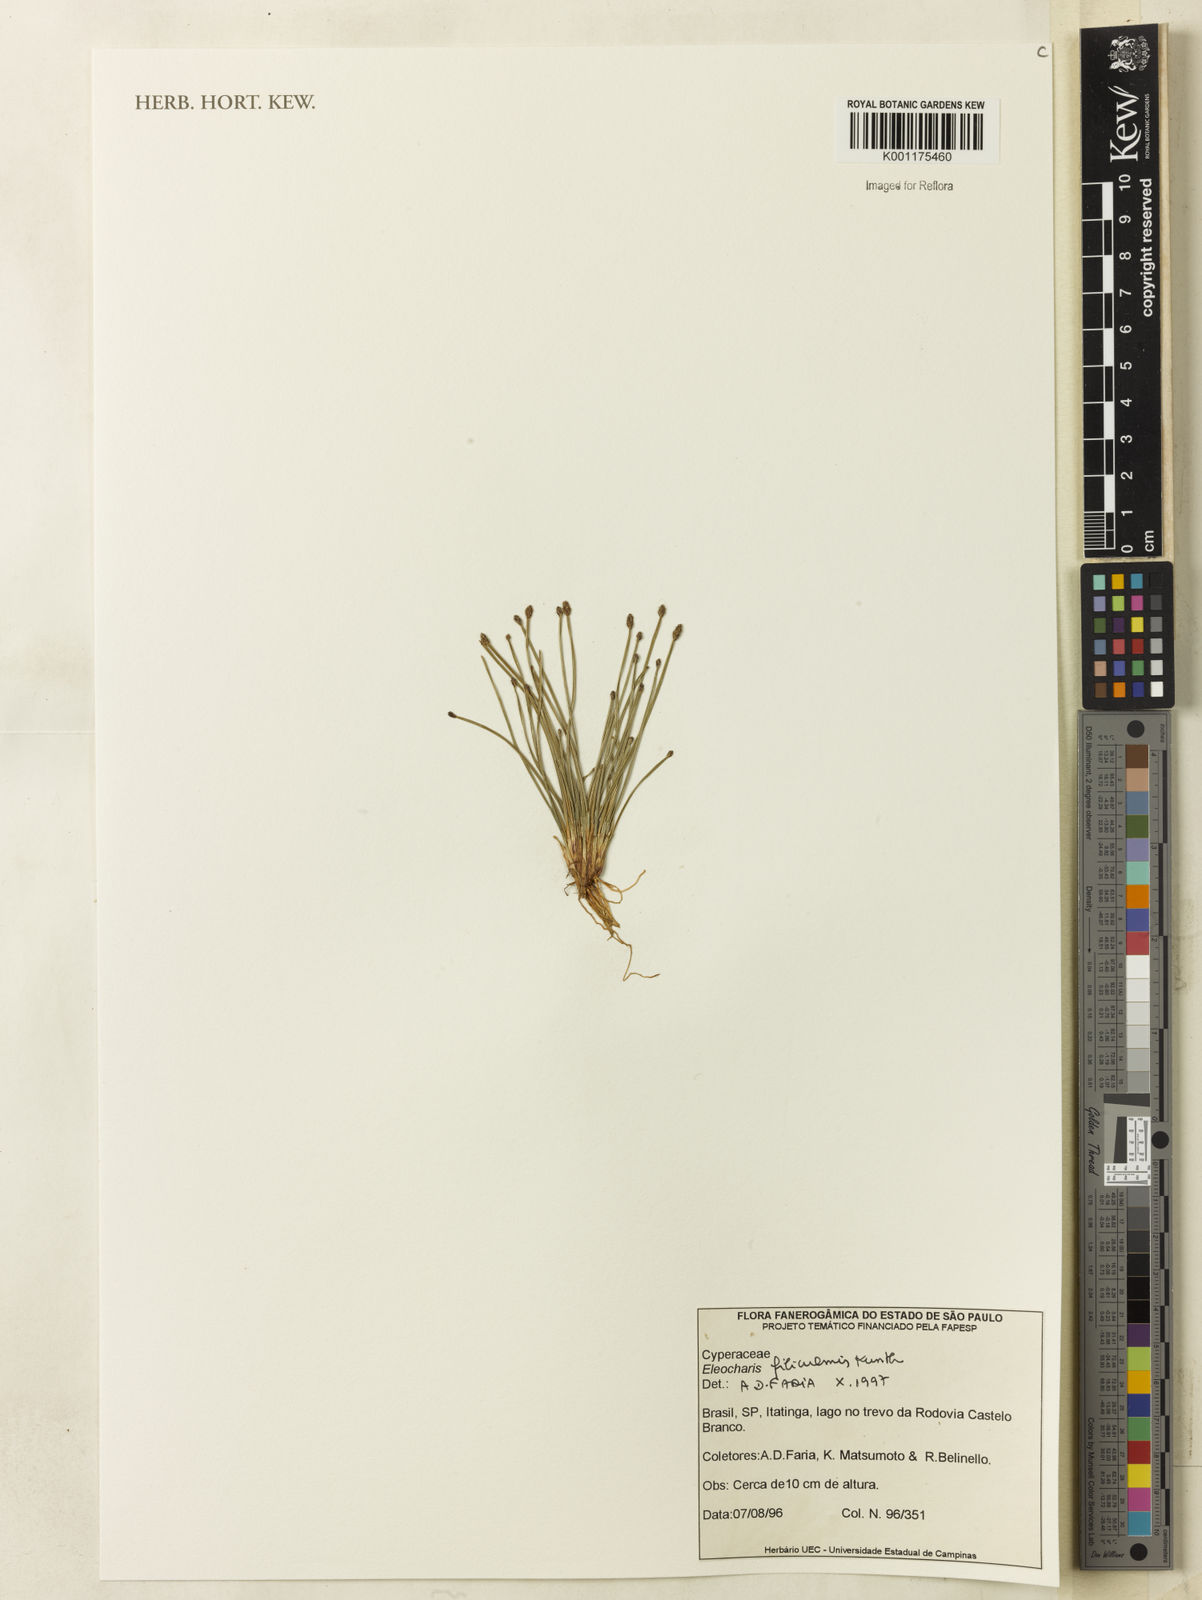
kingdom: Plantae
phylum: Tracheophyta
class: Liliopsida
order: Poales
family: Cyperaceae
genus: Eleocharis
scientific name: Eleocharis filiculmis
